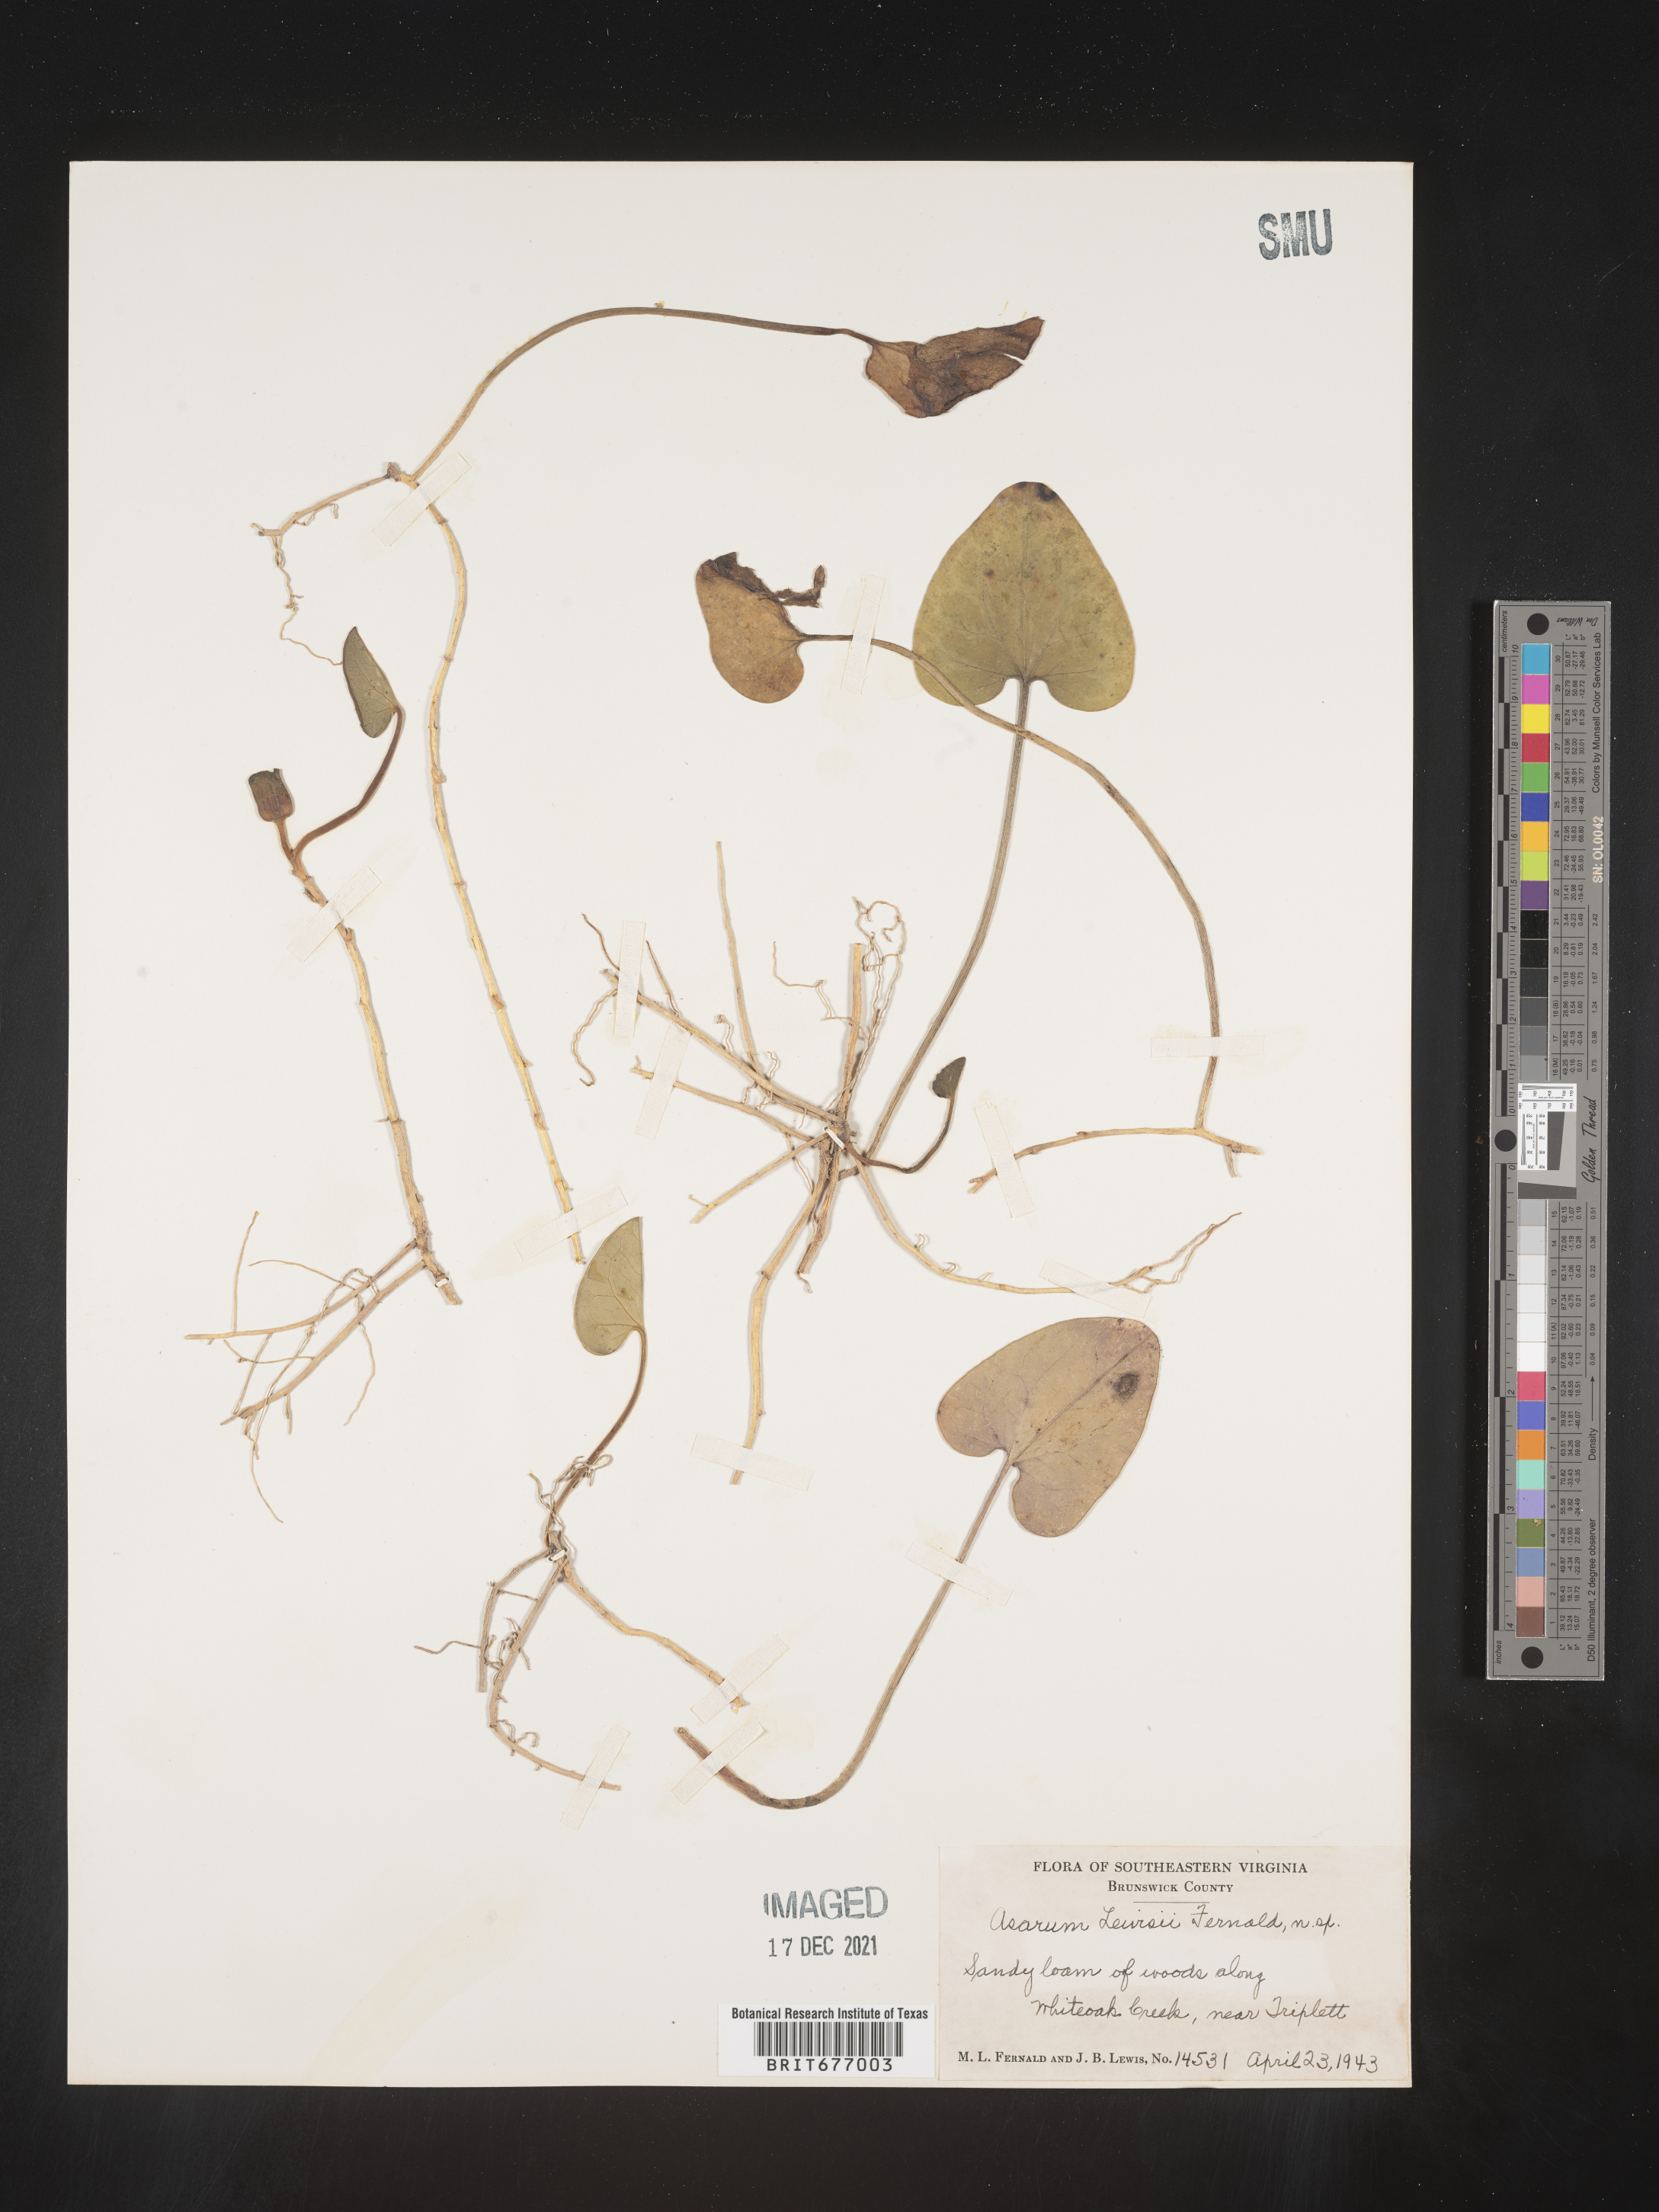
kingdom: Plantae
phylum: Tracheophyta
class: Magnoliopsida
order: Piperales
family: Aristolochiaceae
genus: Asarum
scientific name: Asarum
